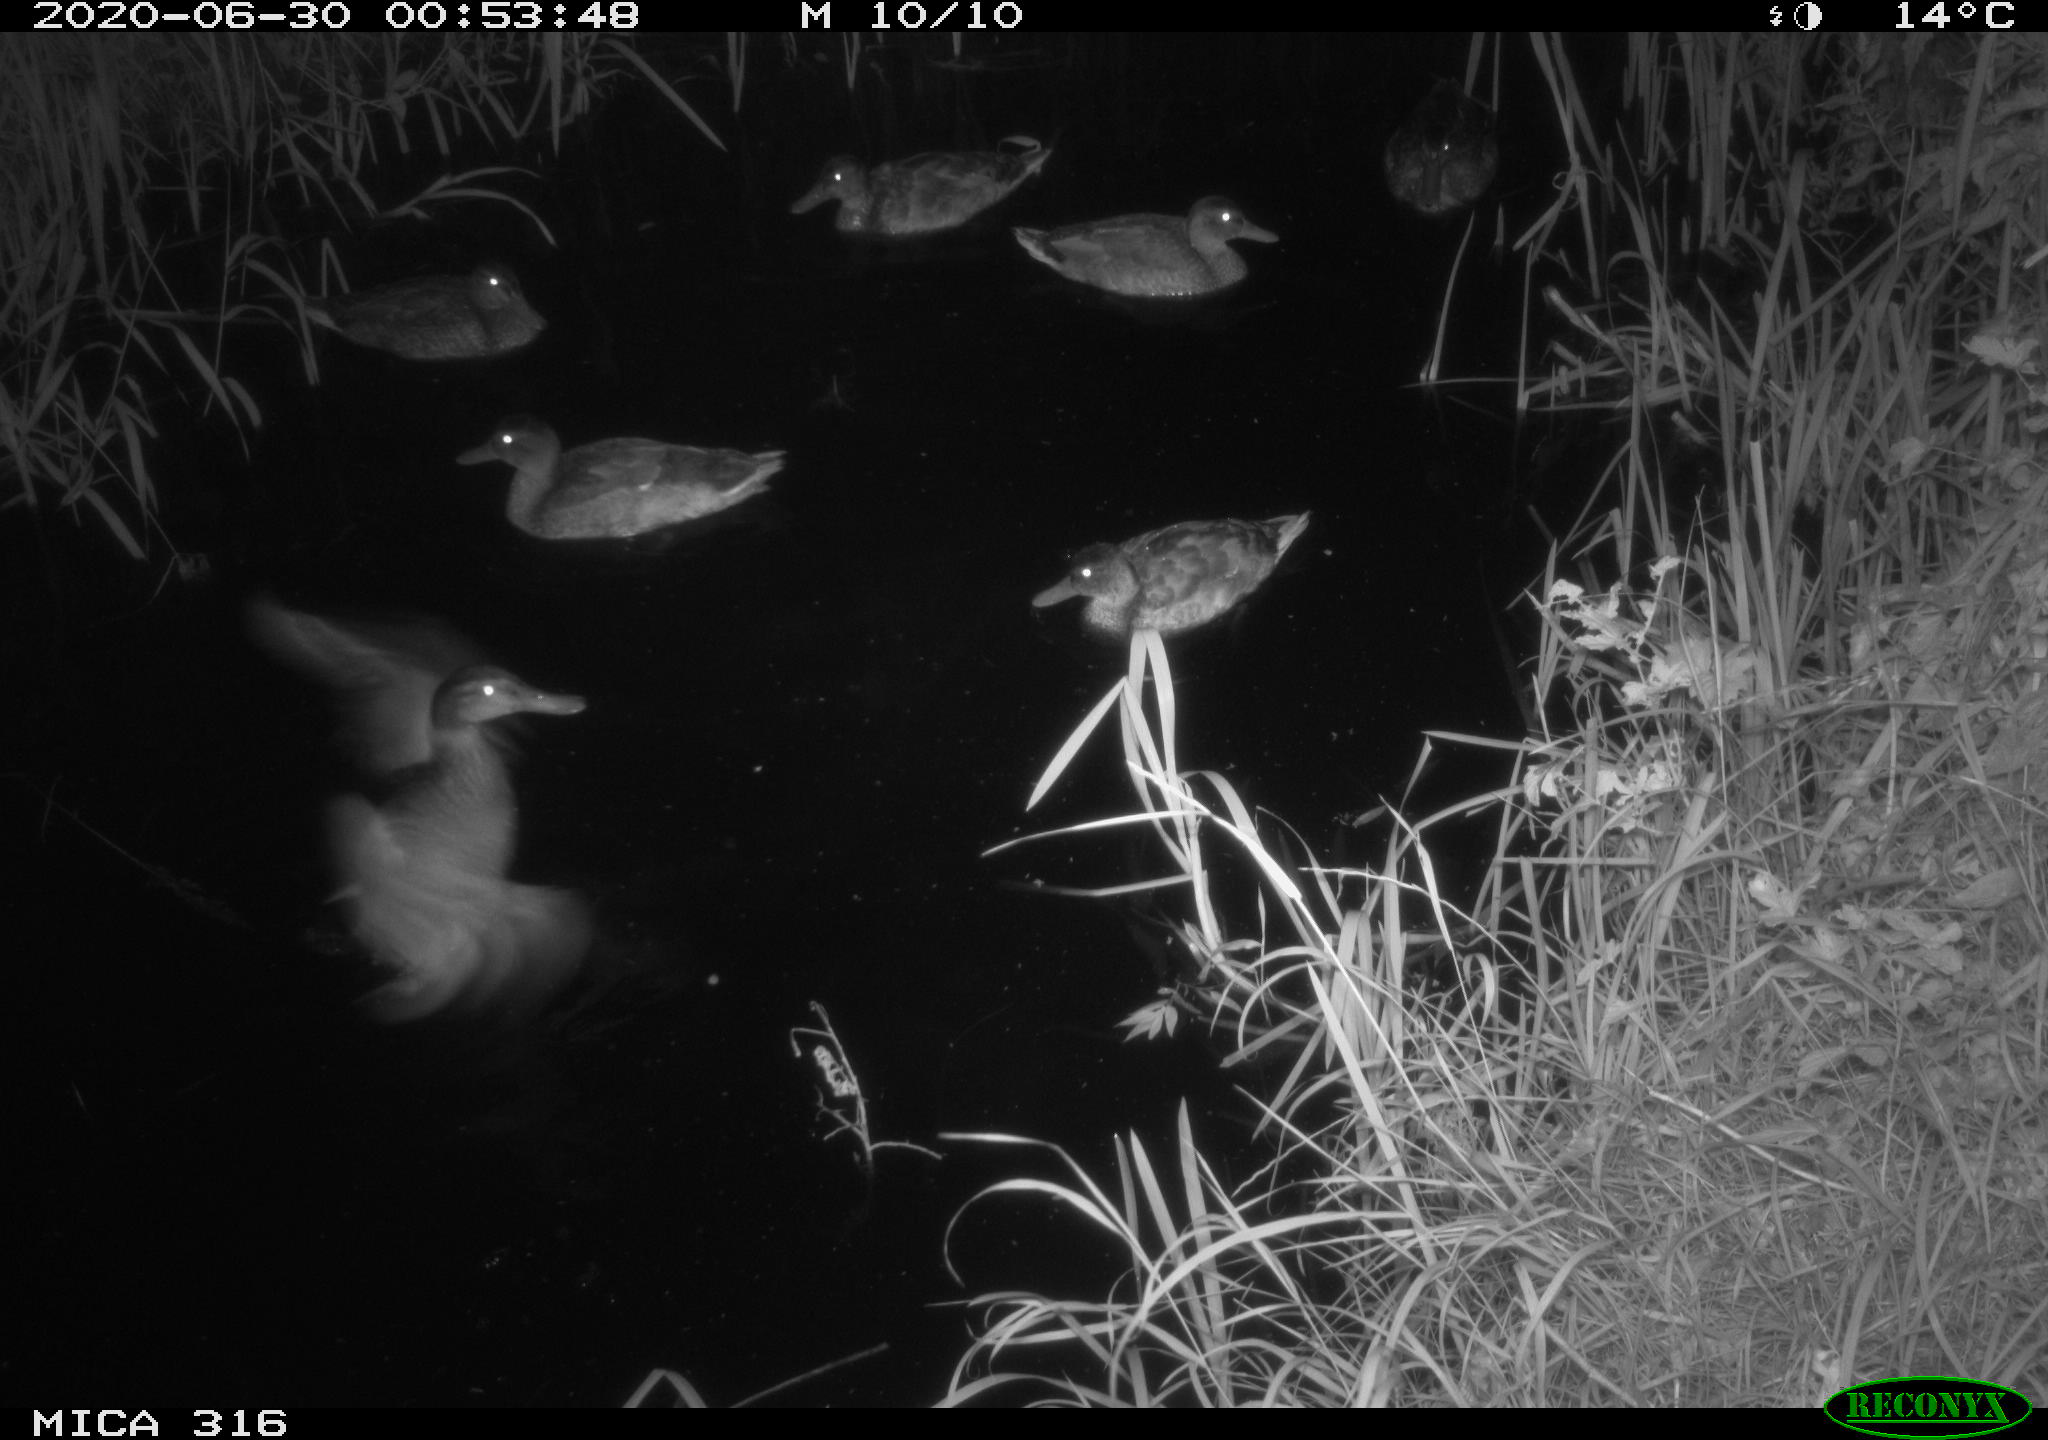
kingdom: Animalia
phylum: Chordata
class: Aves
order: Anseriformes
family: Anatidae
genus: Anas
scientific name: Anas platyrhynchos
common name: Mallard
